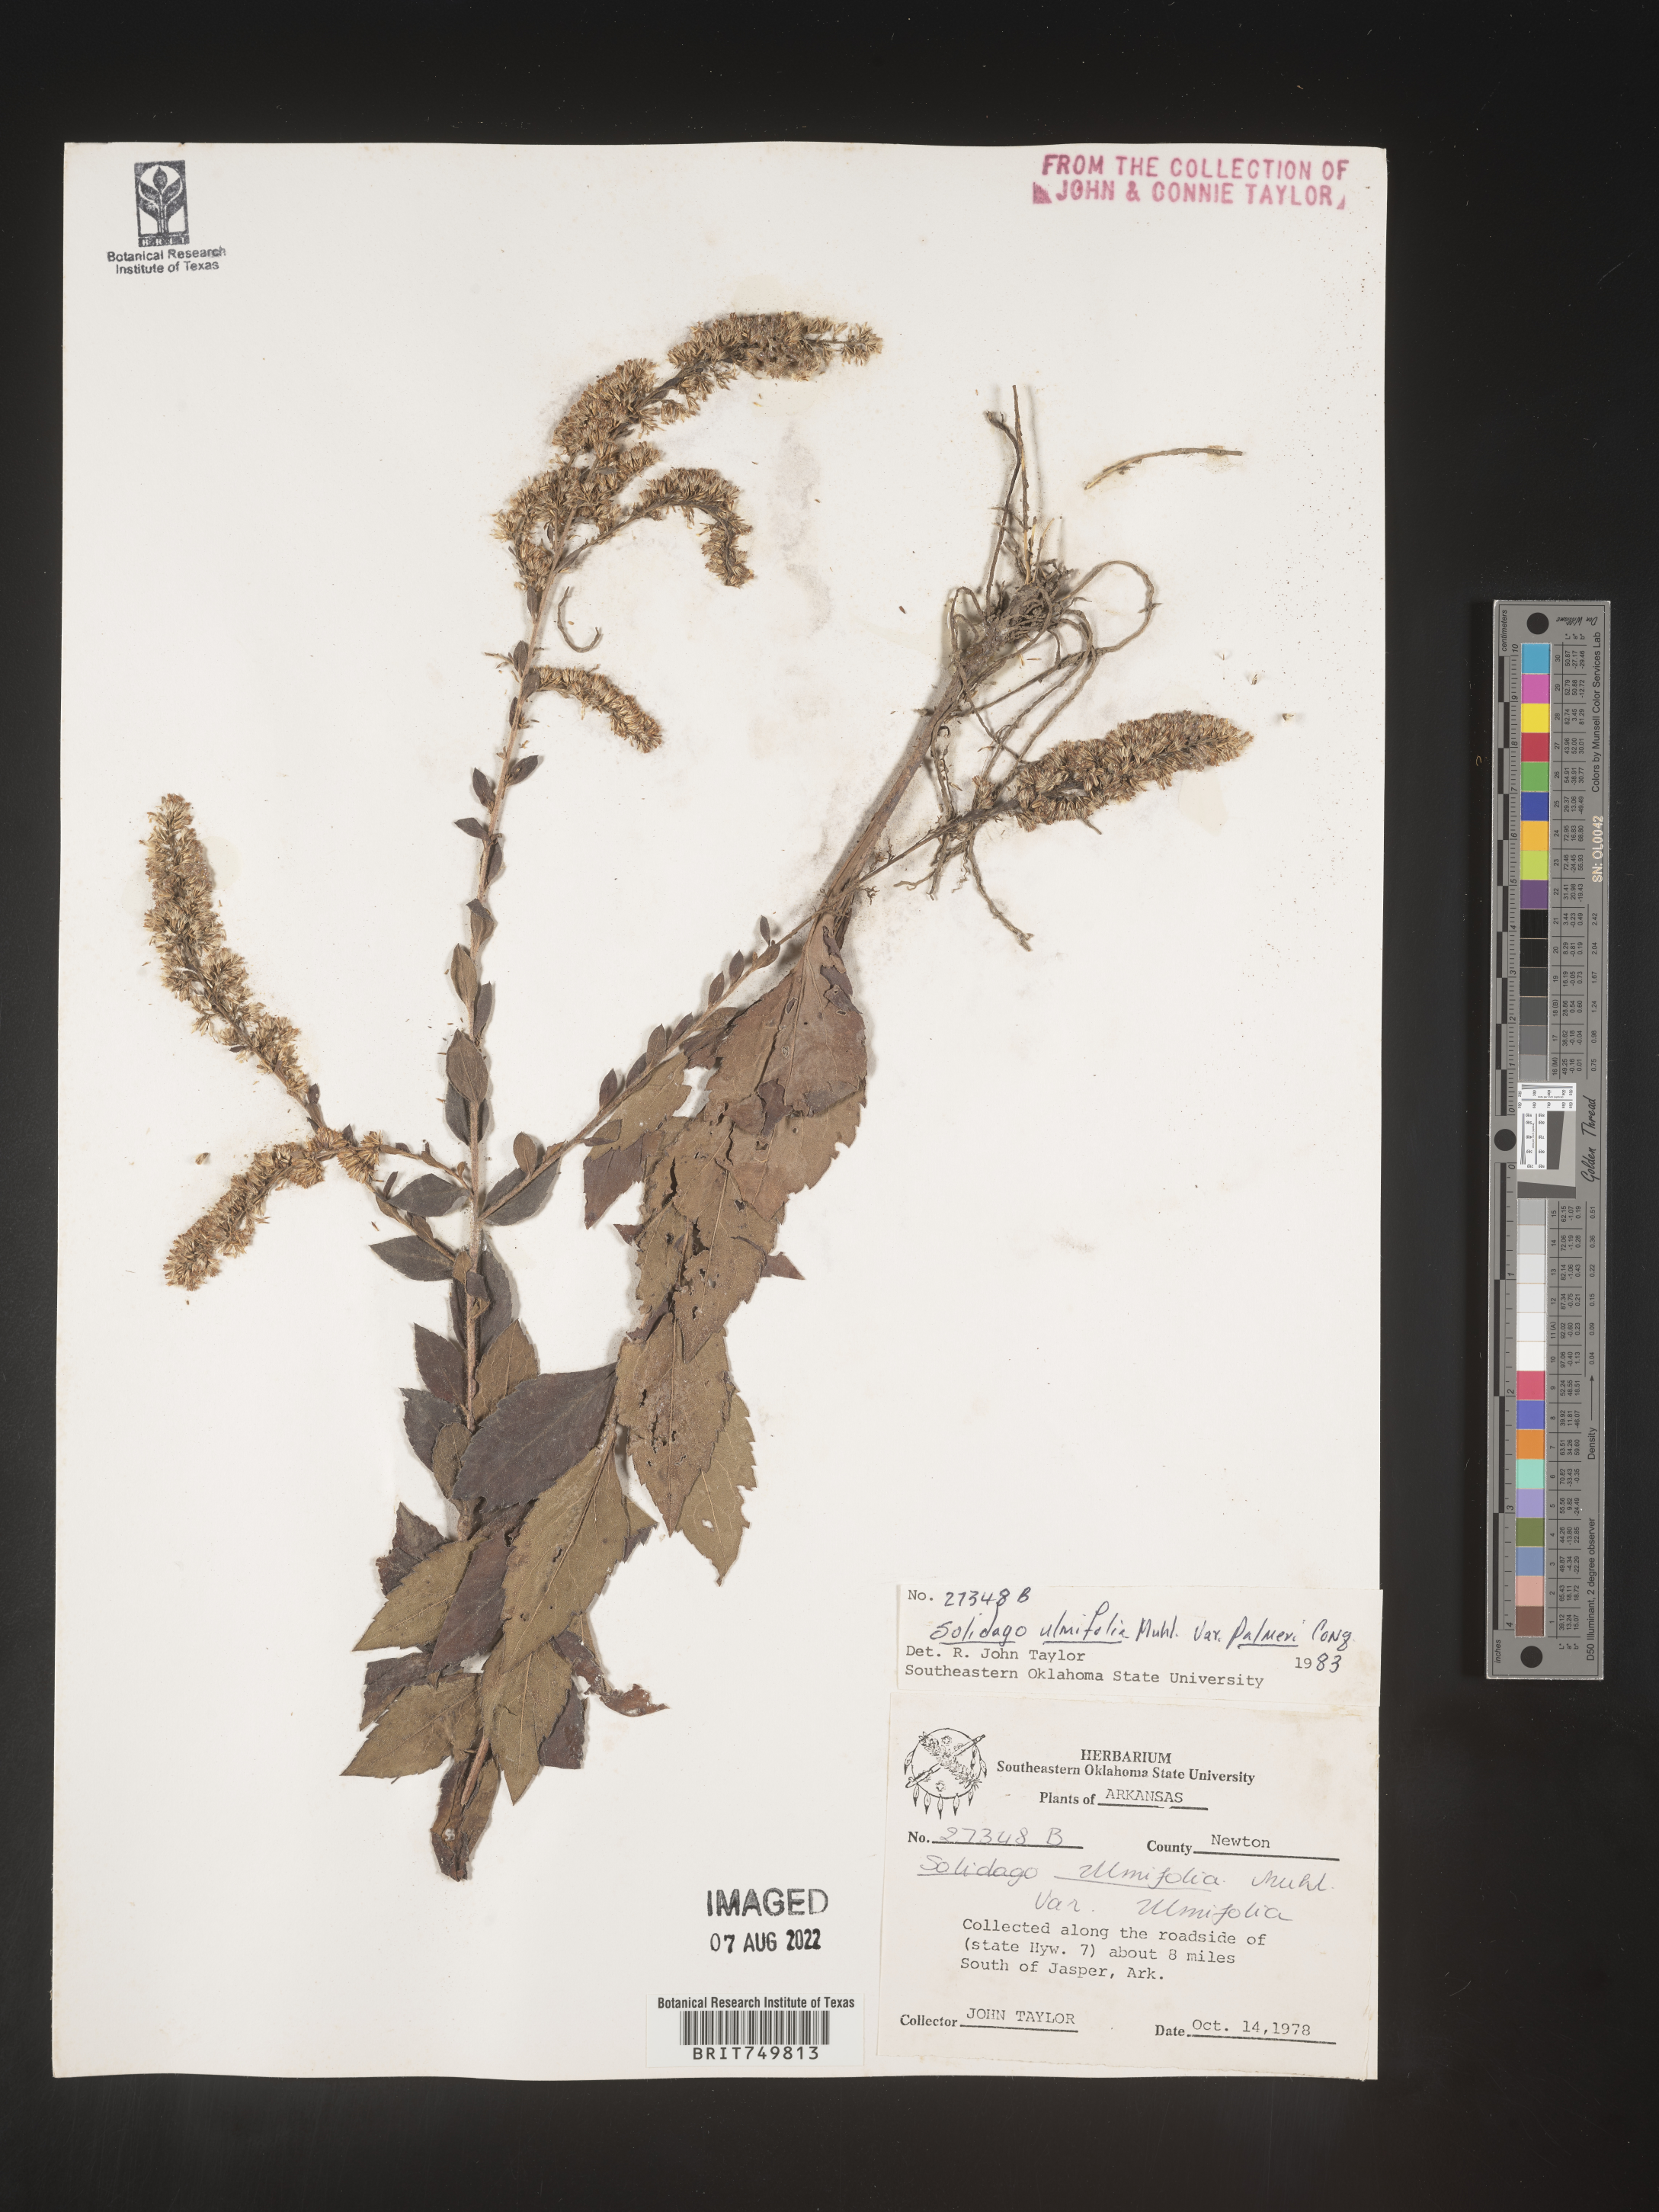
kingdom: Plantae
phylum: Tracheophyta
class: Magnoliopsida
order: Asterales
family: Asteraceae
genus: Solidago
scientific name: Solidago ulmifolia
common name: Elm-leaf goldenrod
